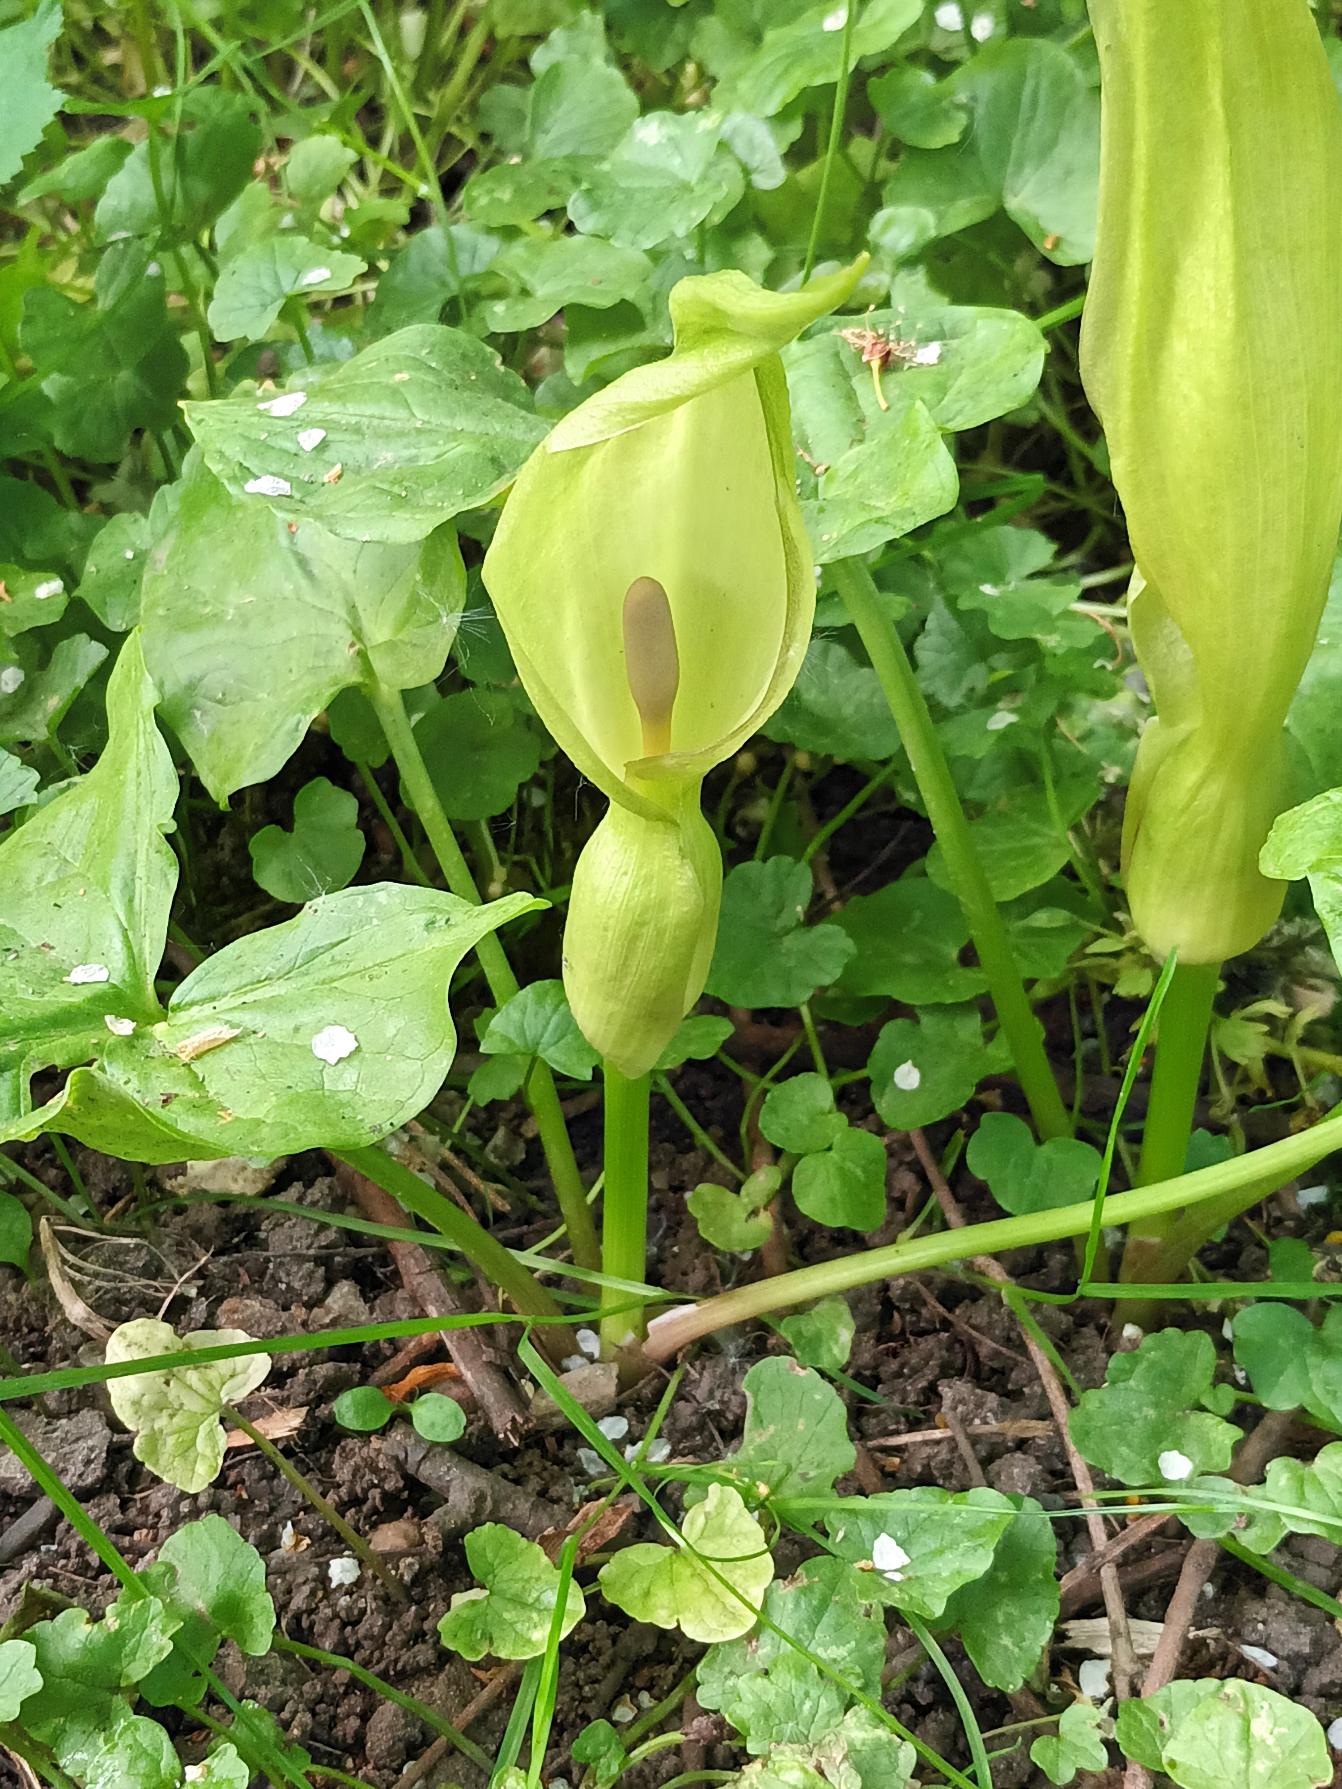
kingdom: Plantae
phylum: Tracheophyta
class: Liliopsida
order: Alismatales
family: Araceae
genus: Arum
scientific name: Arum maculatum
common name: Plettet arum
